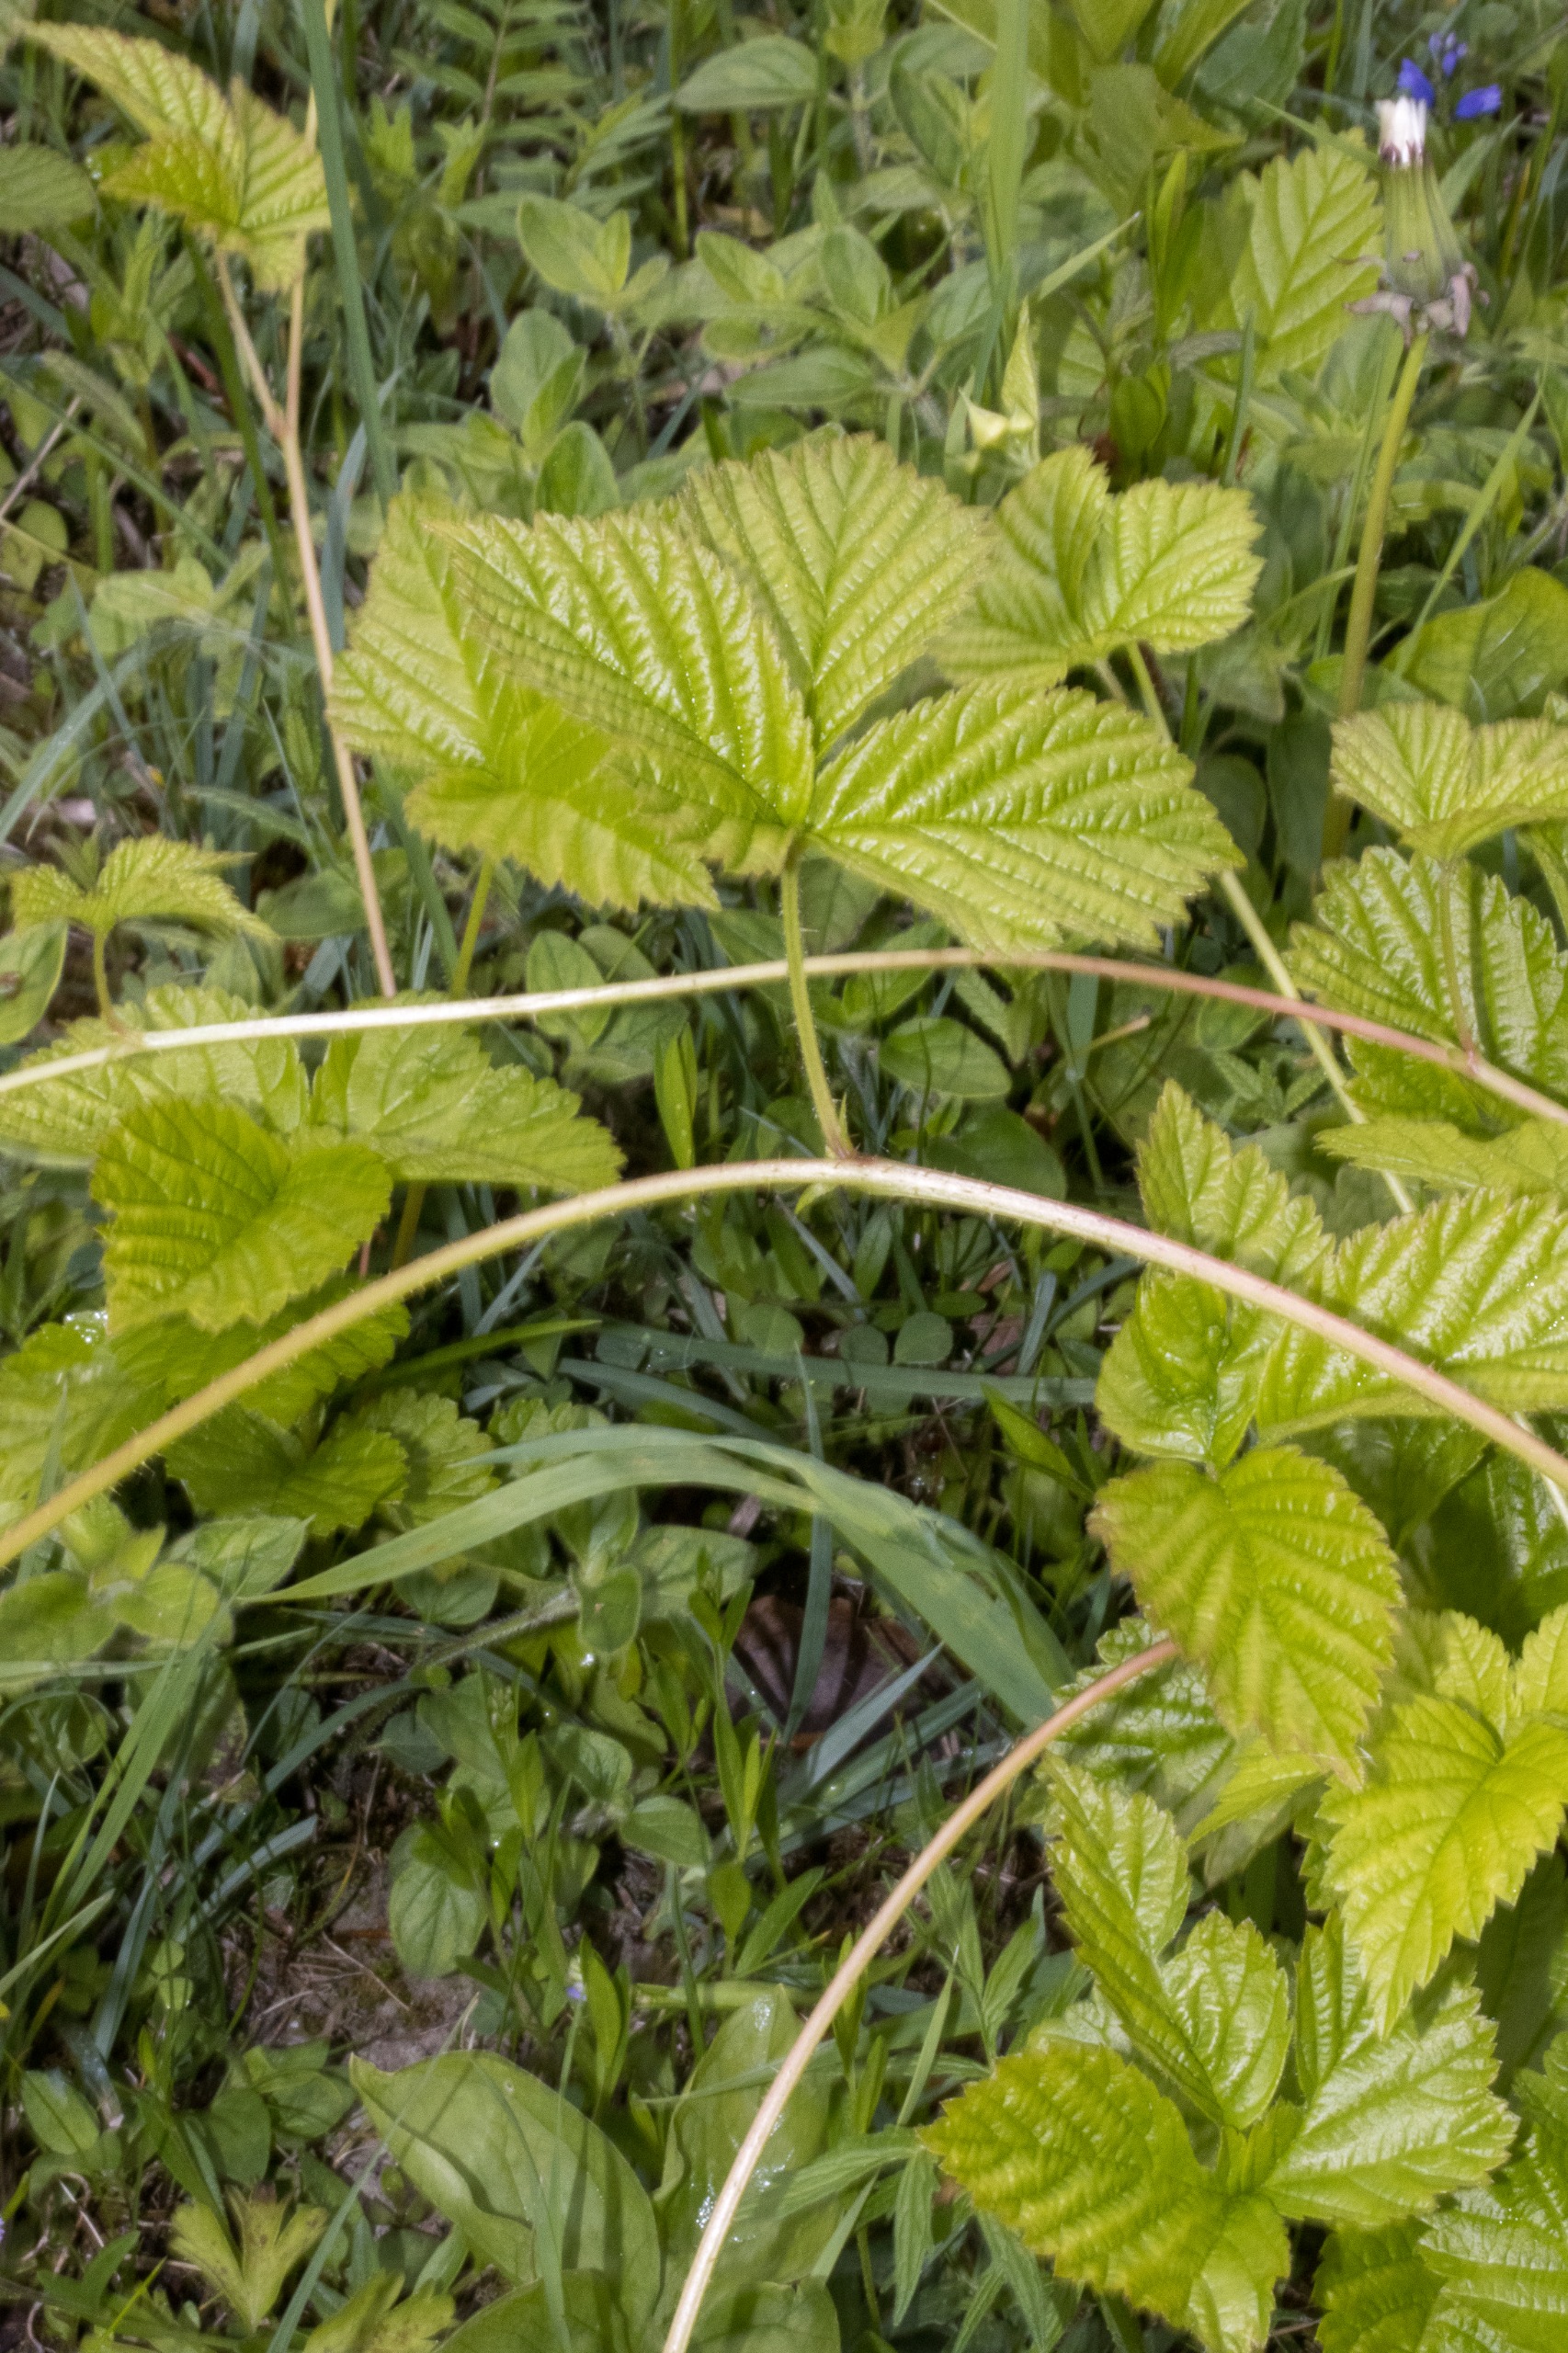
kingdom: Plantae
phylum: Tracheophyta
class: Magnoliopsida
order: Rosales
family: Rosaceae
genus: Rubus
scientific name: Rubus saxatilis
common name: Fruebær
